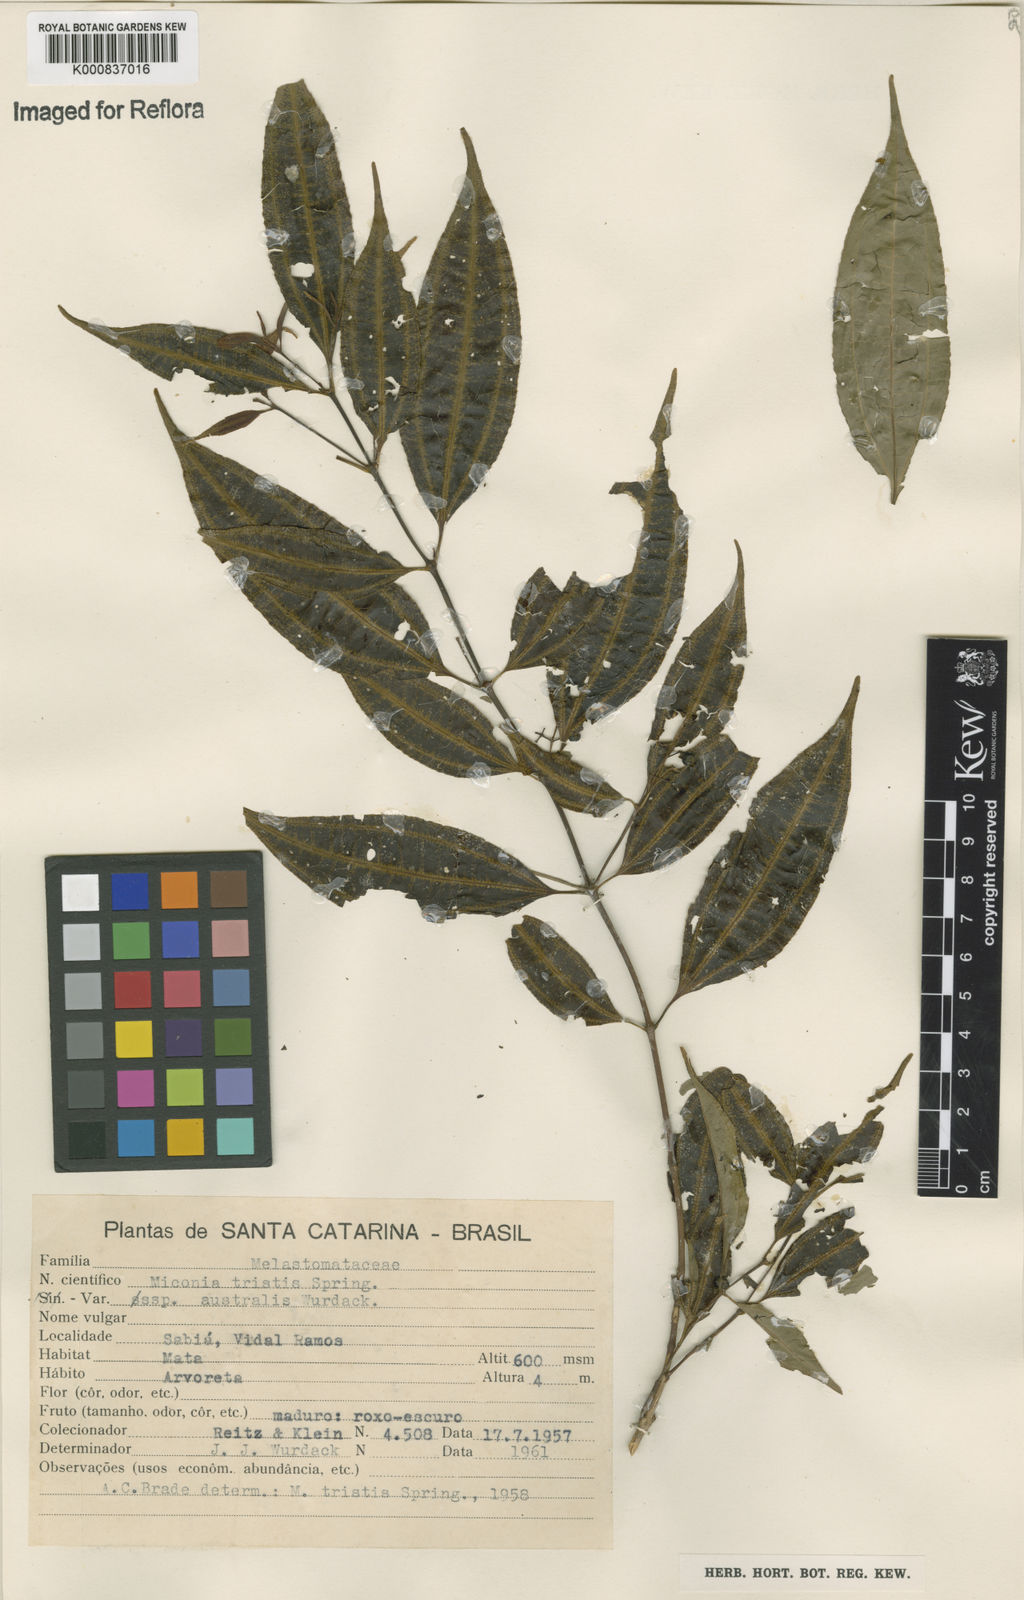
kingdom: Plantae
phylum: Tracheophyta
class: Magnoliopsida
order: Myrtales
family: Melastomataceae
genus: Miconia
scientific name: Miconia tristis
